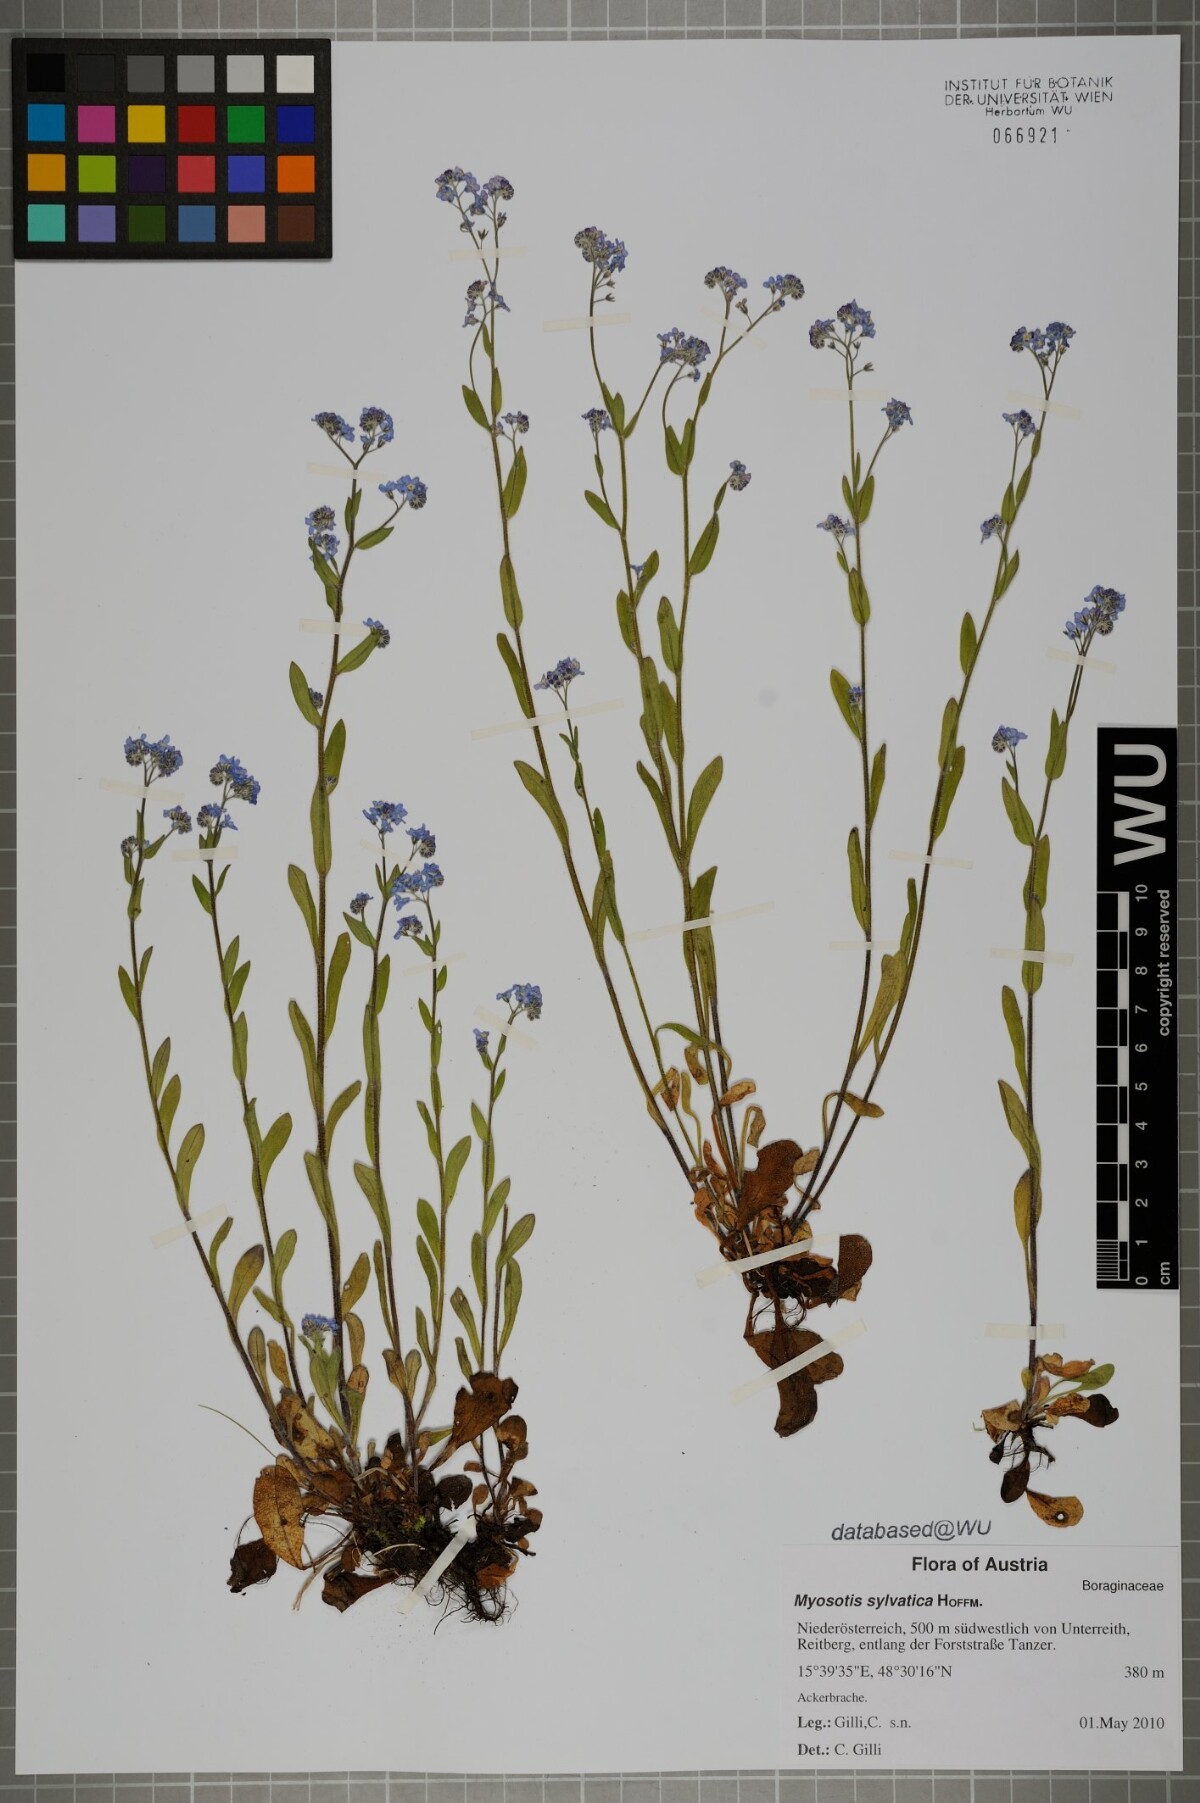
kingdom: Plantae
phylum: Tracheophyta
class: Magnoliopsida
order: Boraginales
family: Boraginaceae
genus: Myosotis
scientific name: Myosotis sylvatica
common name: Wood forget-me-not
